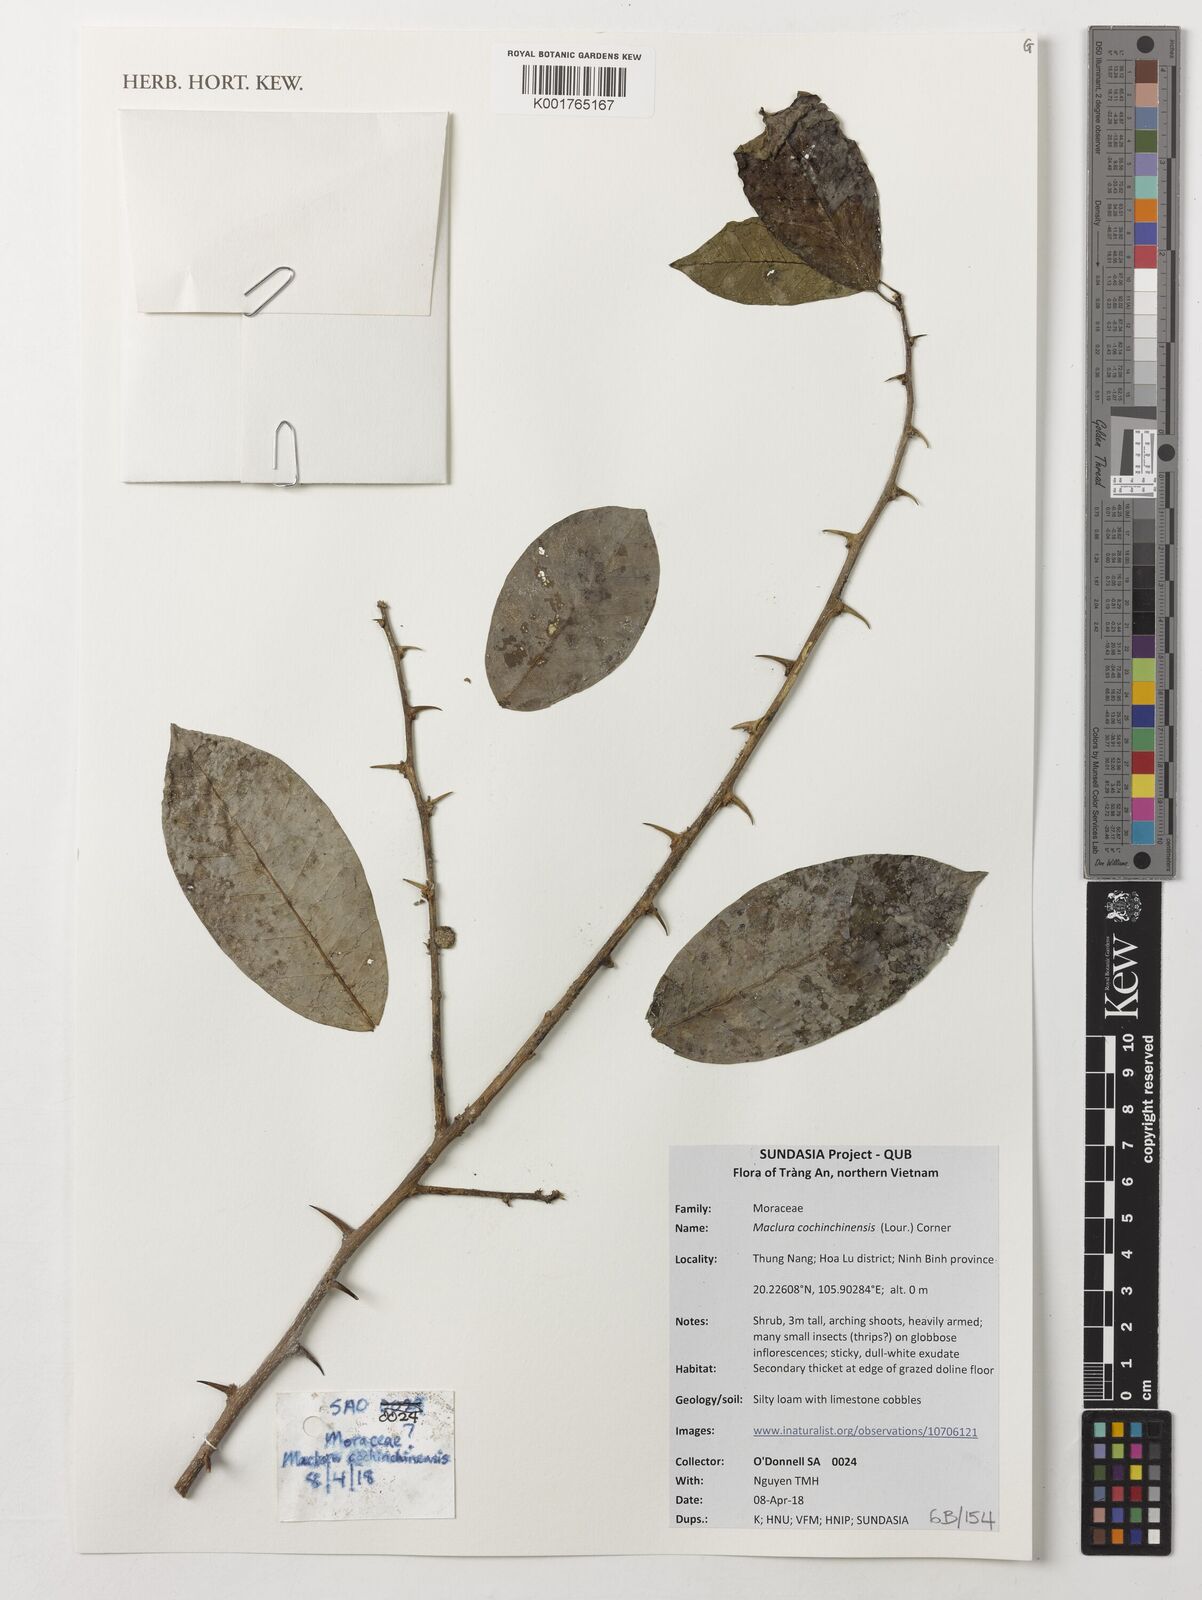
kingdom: Plantae
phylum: Tracheophyta
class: Magnoliopsida
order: Rosales
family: Moraceae
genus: Maclura
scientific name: Maclura cochinchinensis
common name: Cockspurthorn
